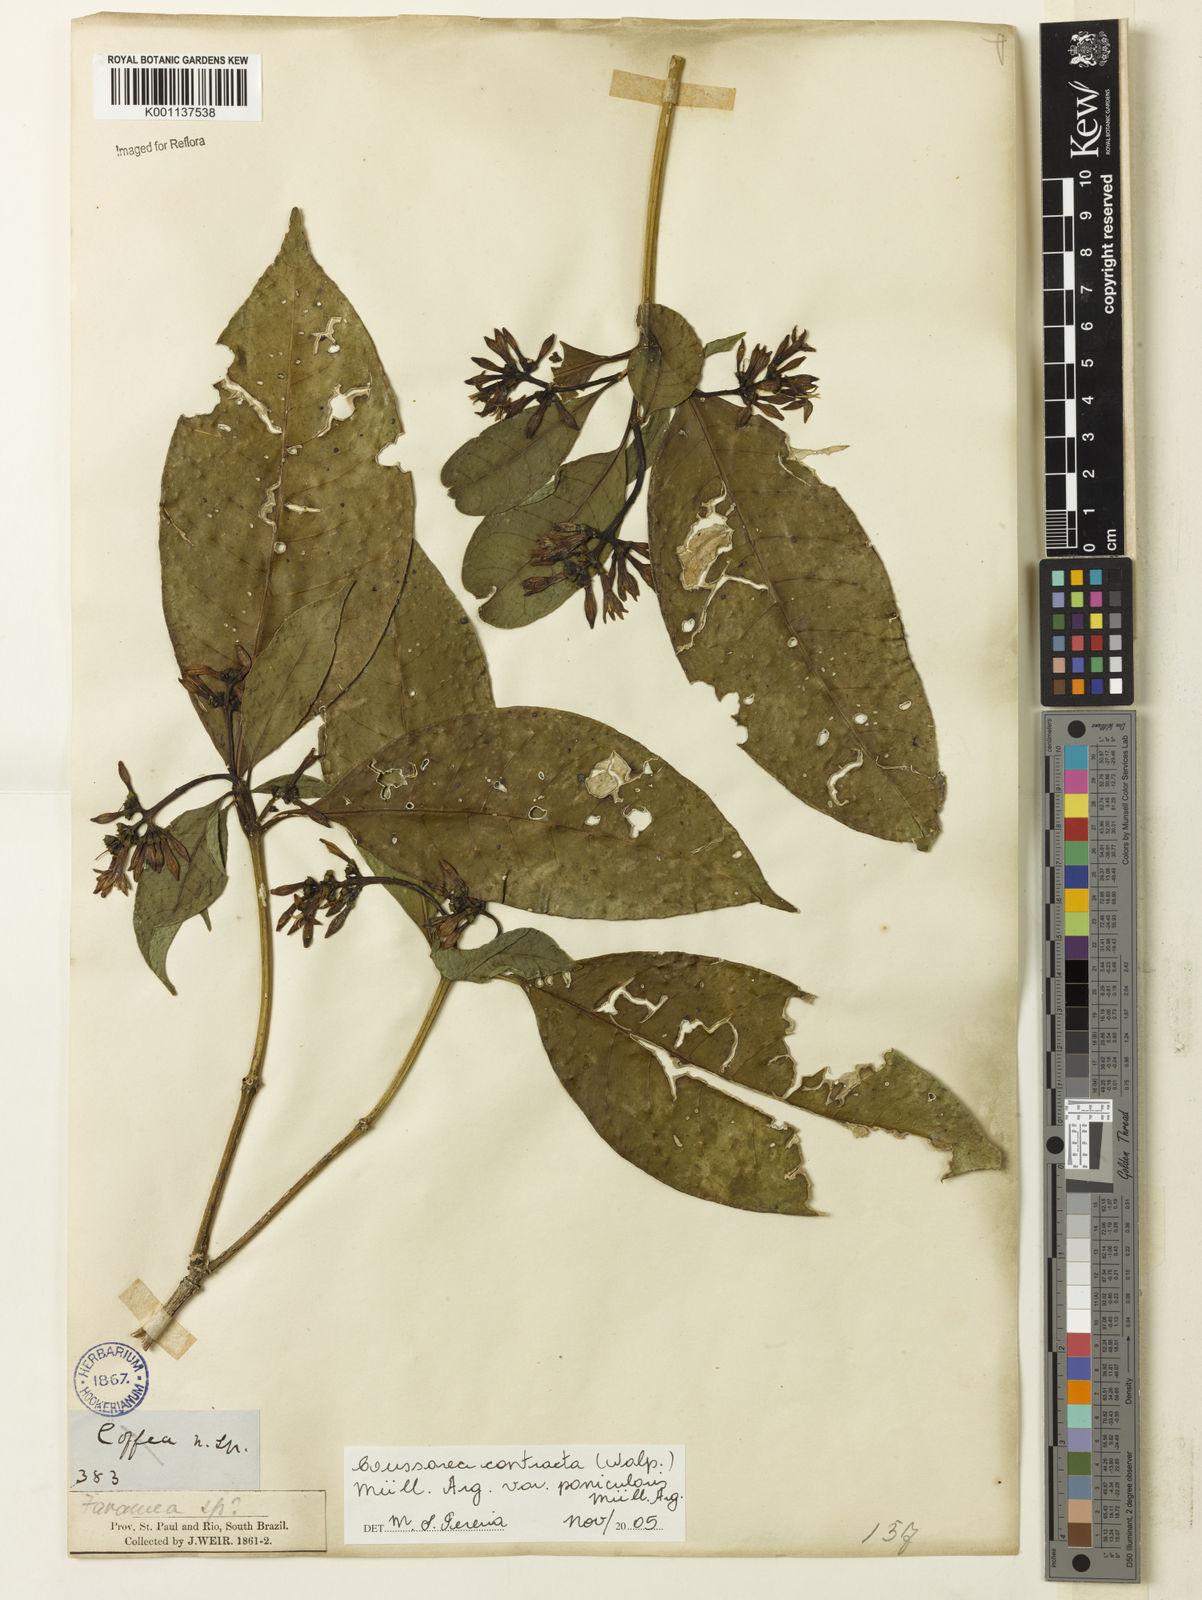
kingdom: Plantae
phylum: Tracheophyta
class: Magnoliopsida
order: Gentianales
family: Rubiaceae
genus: Coussarea
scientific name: Coussarea
